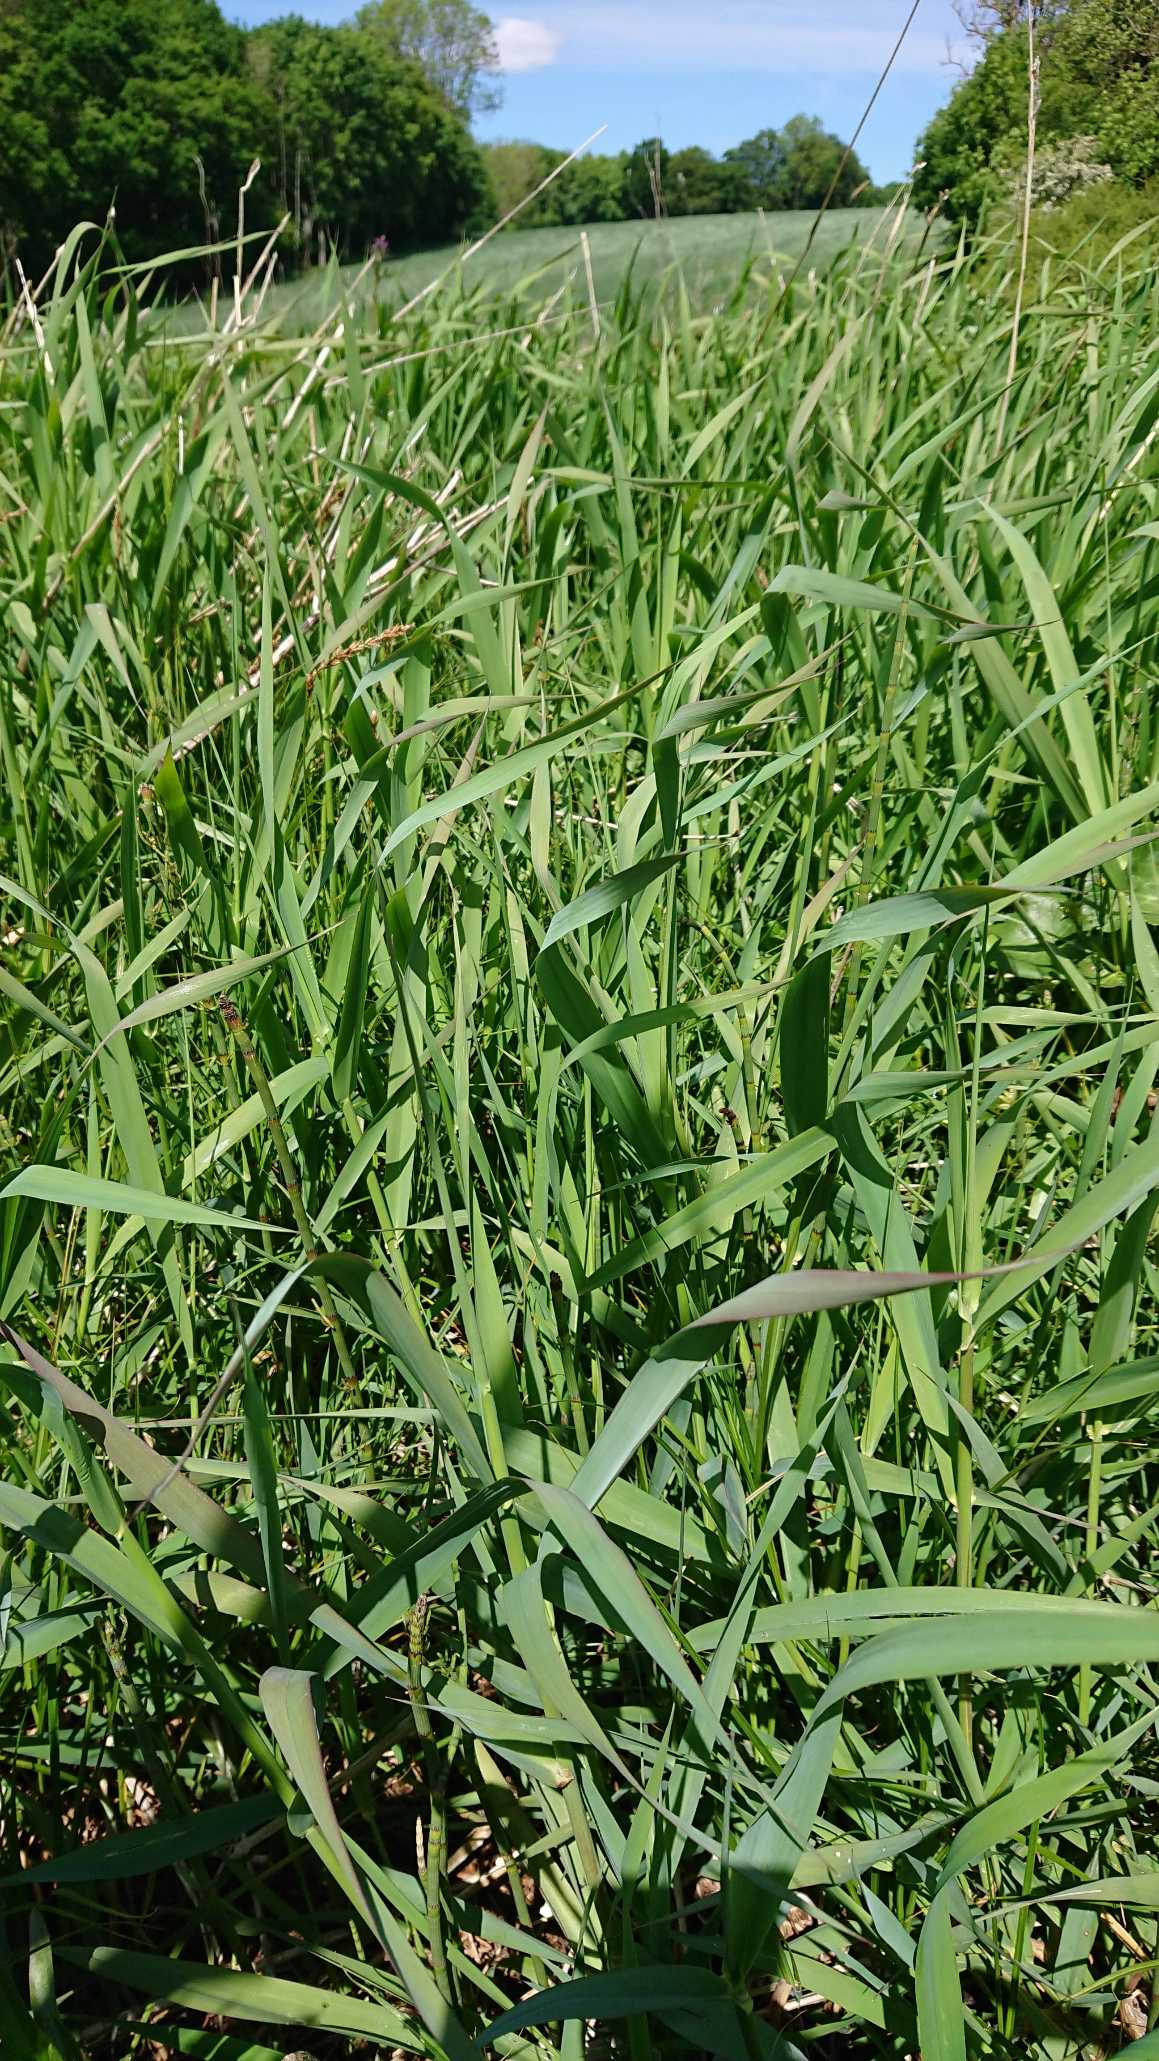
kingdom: Plantae
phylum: Tracheophyta
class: Liliopsida
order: Poales
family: Poaceae
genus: Phalaris
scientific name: Phalaris arundinacea
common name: Rørgræs
